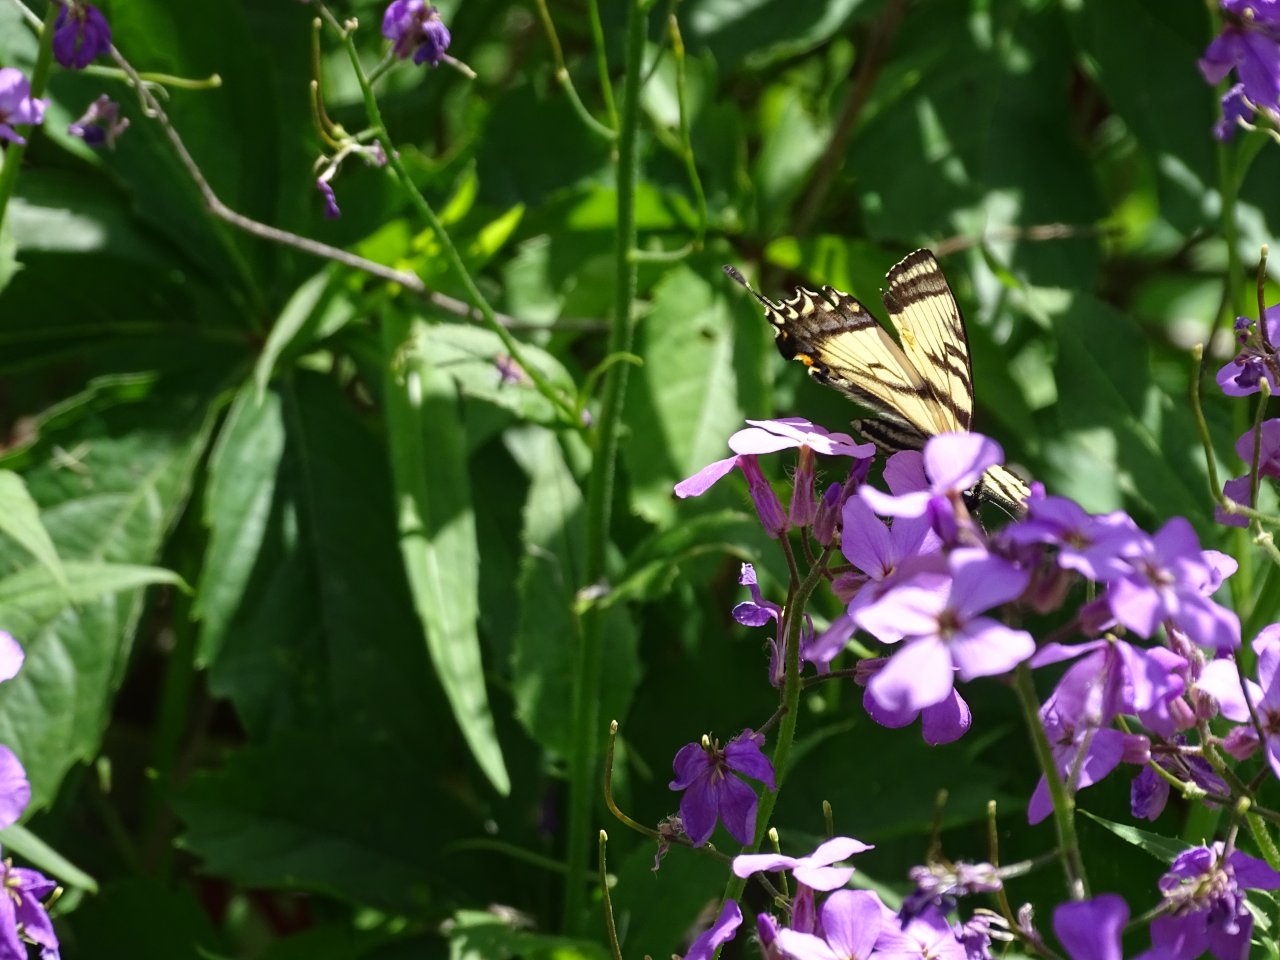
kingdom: Animalia
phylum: Arthropoda
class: Insecta
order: Lepidoptera
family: Papilionidae
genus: Papilio
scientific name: Papilio
